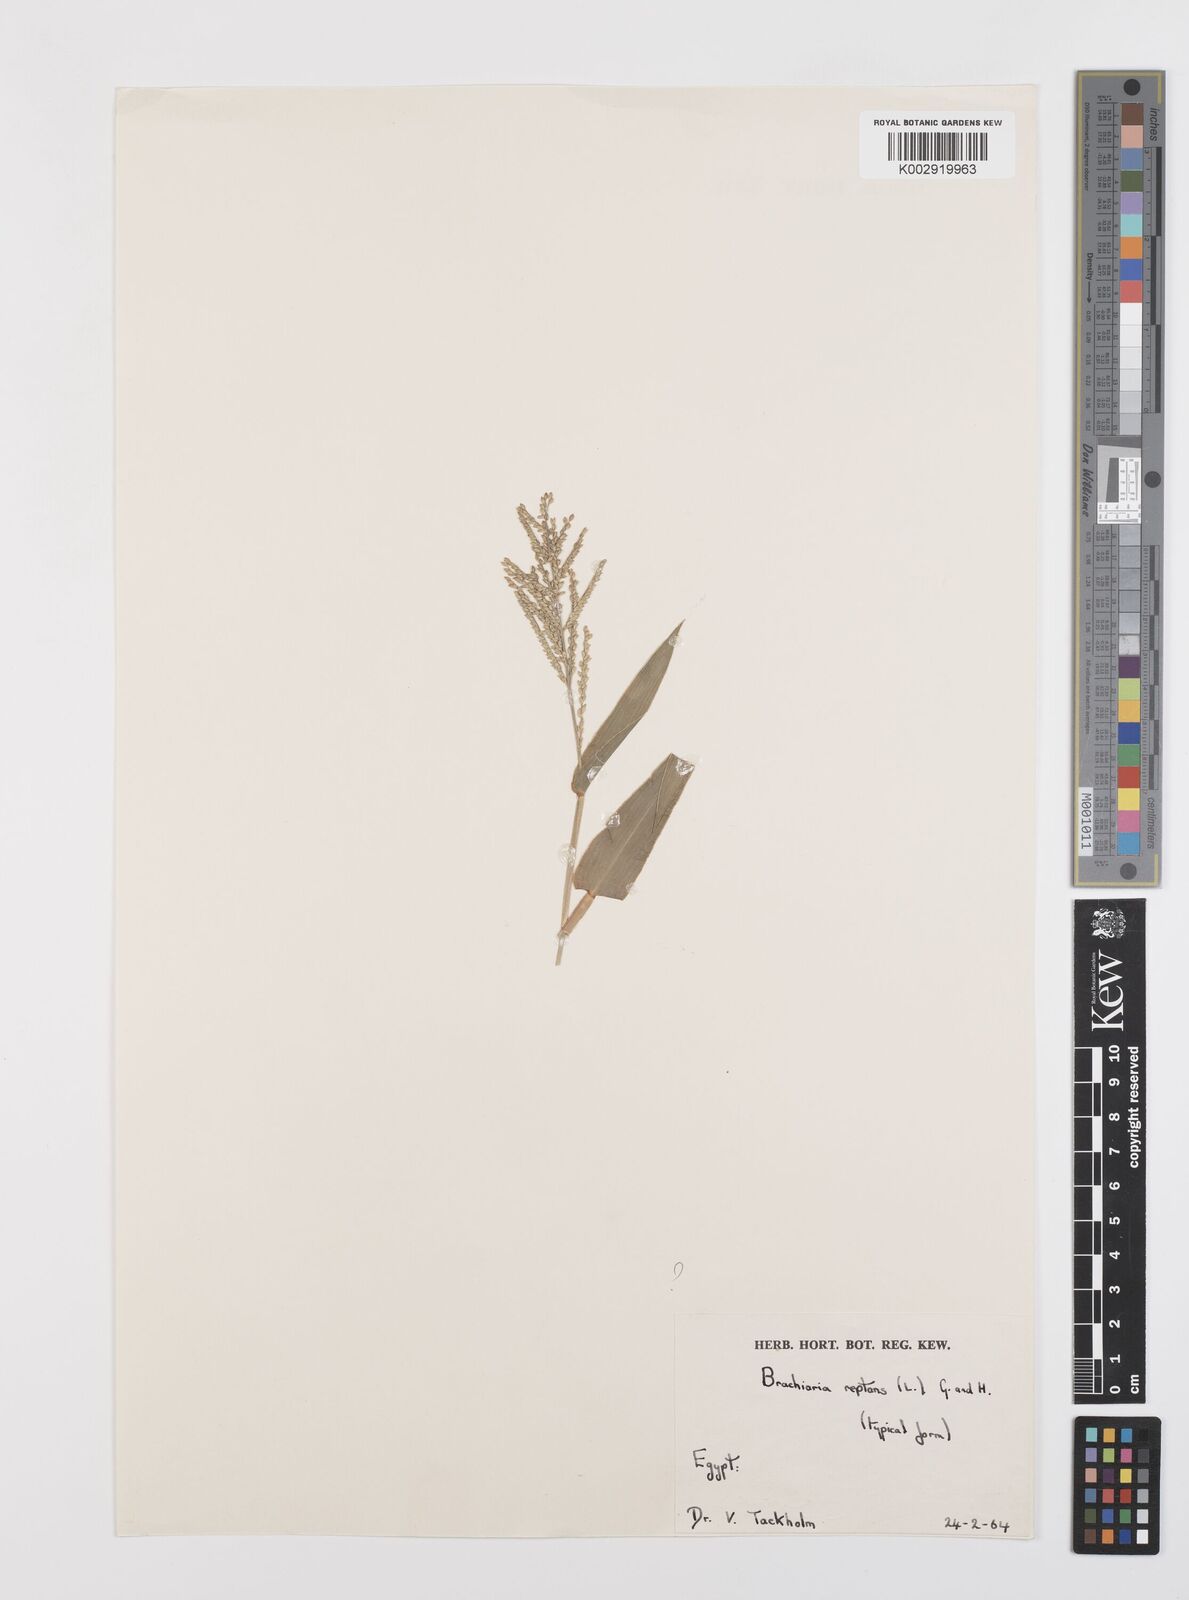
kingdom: Plantae
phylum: Tracheophyta
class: Liliopsida
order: Poales
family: Poaceae
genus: Urochloa
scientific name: Urochloa reptans
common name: Sprawling signalgrass
